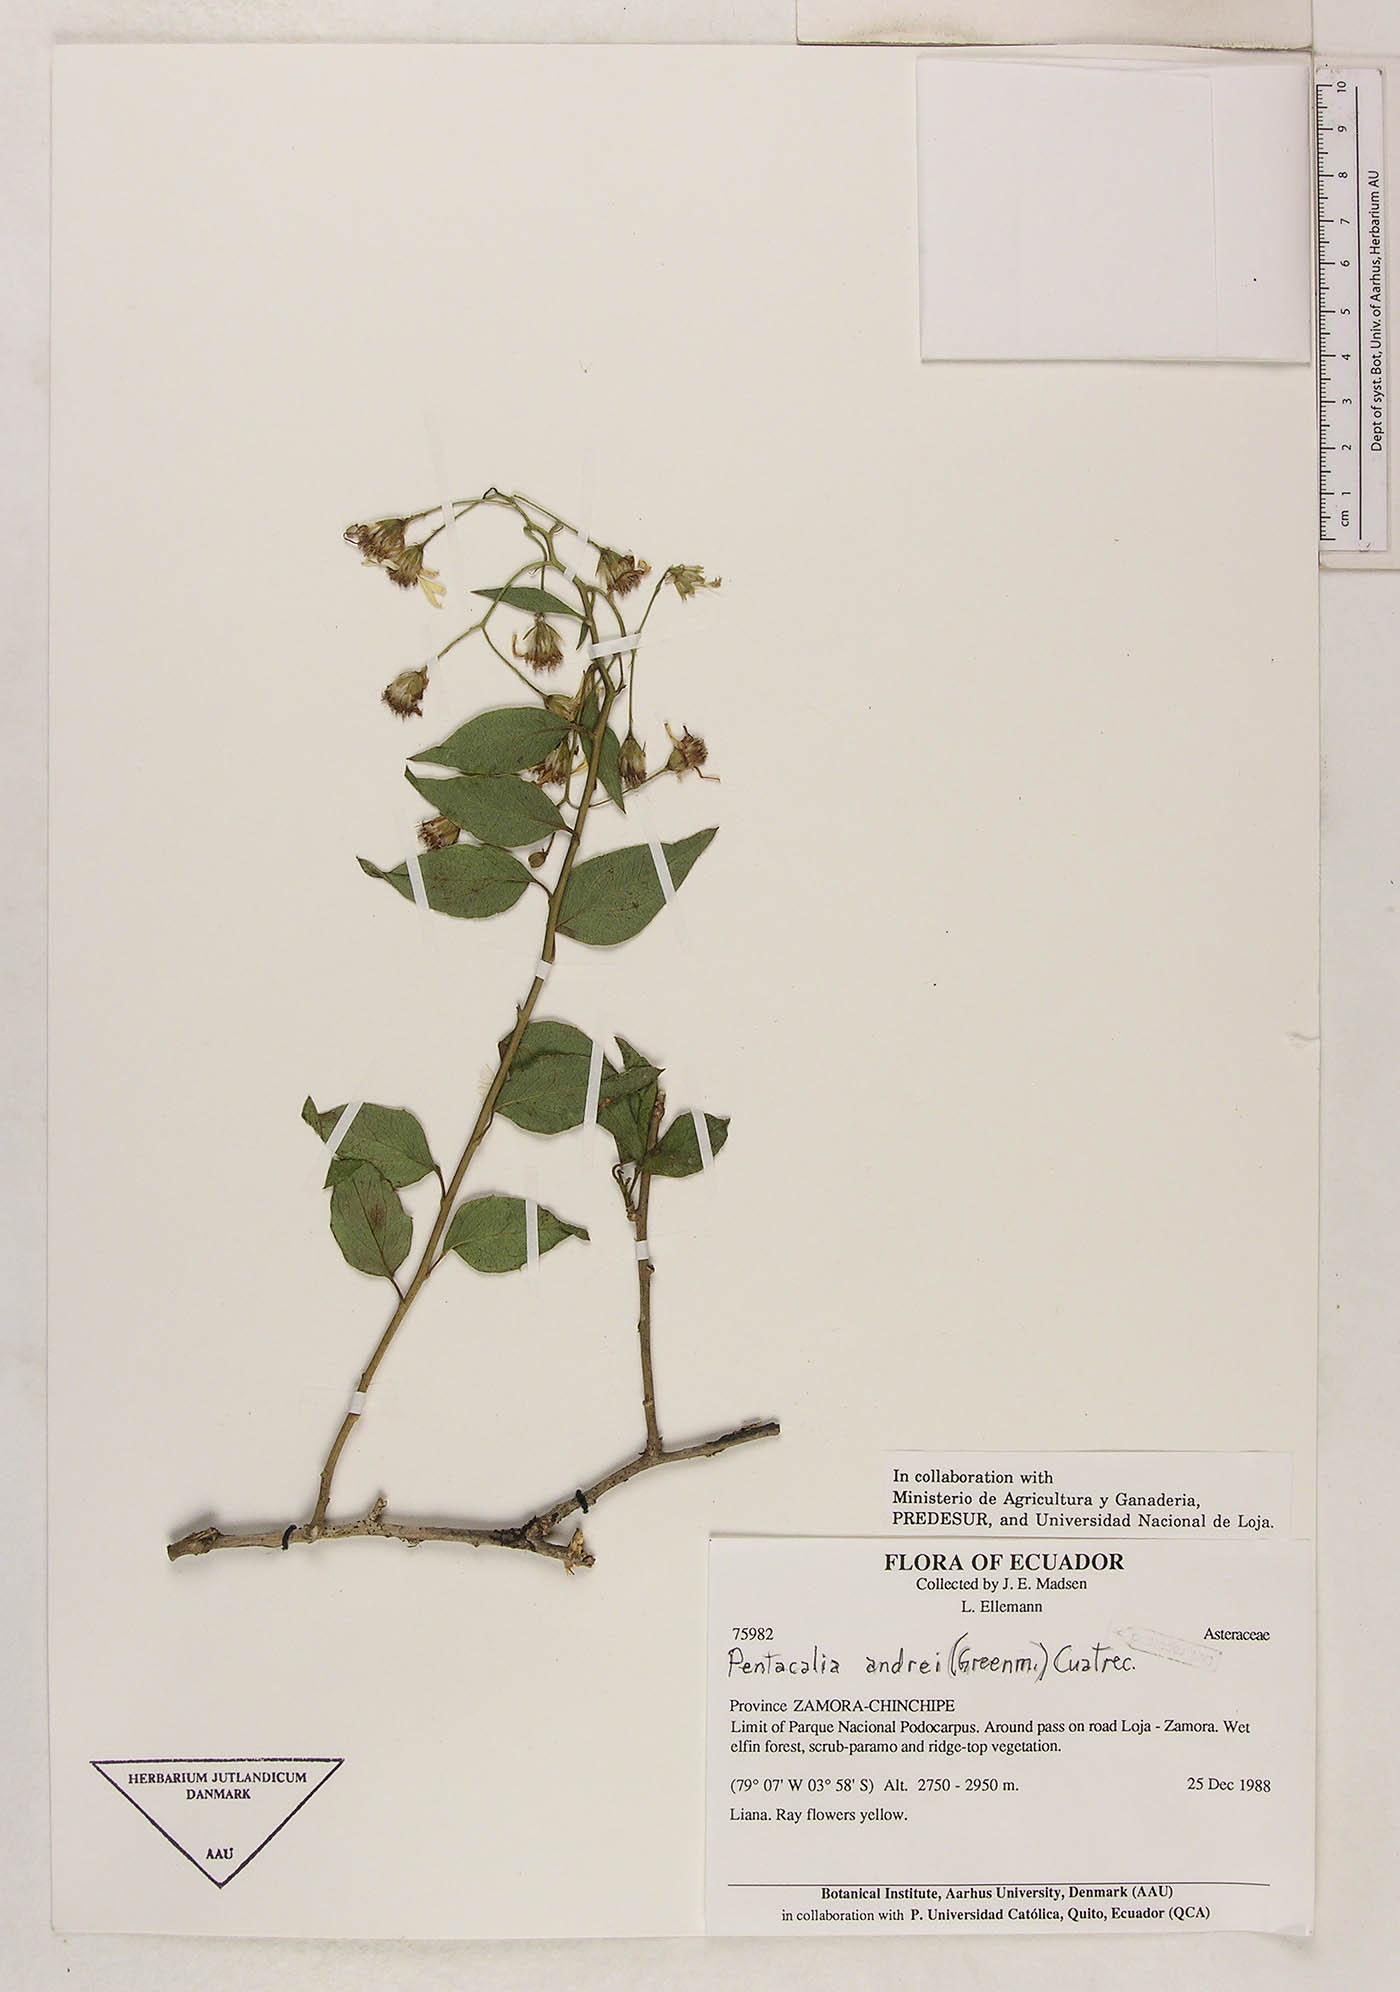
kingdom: Plantae
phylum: Tracheophyta
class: Magnoliopsida
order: Asterales
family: Asteraceae
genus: Pentacalia
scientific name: Pentacalia andrei
